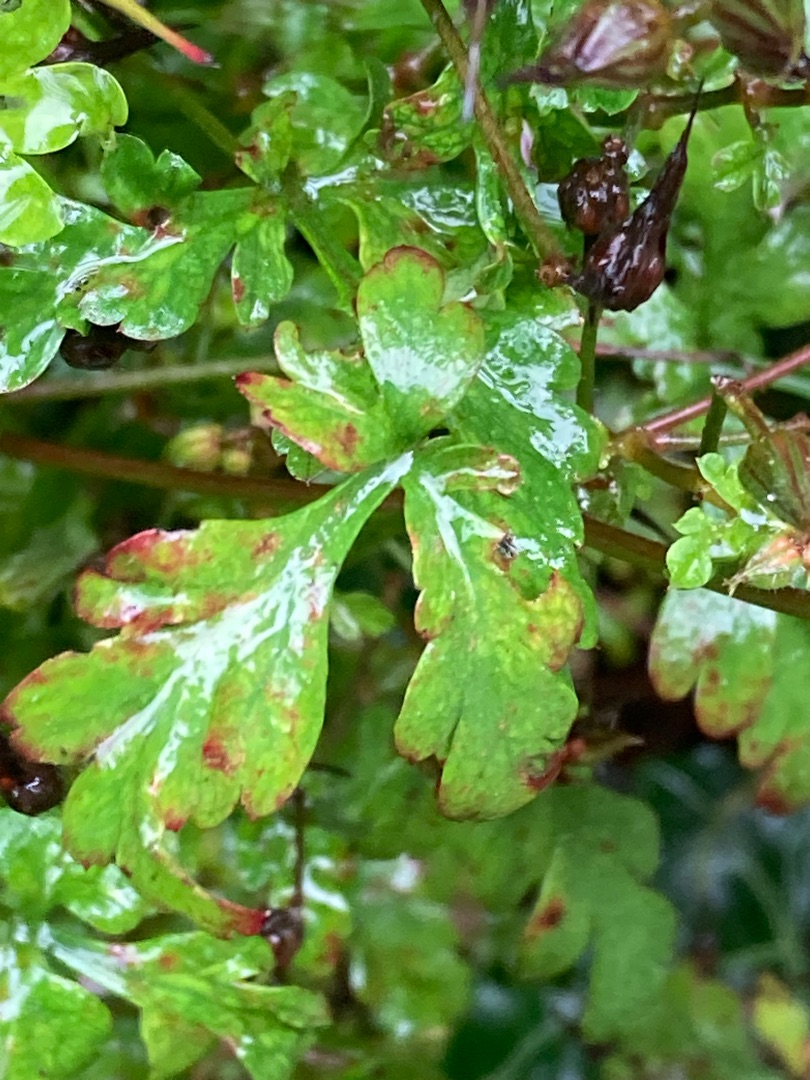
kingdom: Plantae
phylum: Tracheophyta
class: Magnoliopsida
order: Geraniales
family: Geraniaceae
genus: Geranium
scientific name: Geranium robertianum
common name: Stinkende storkenæb
